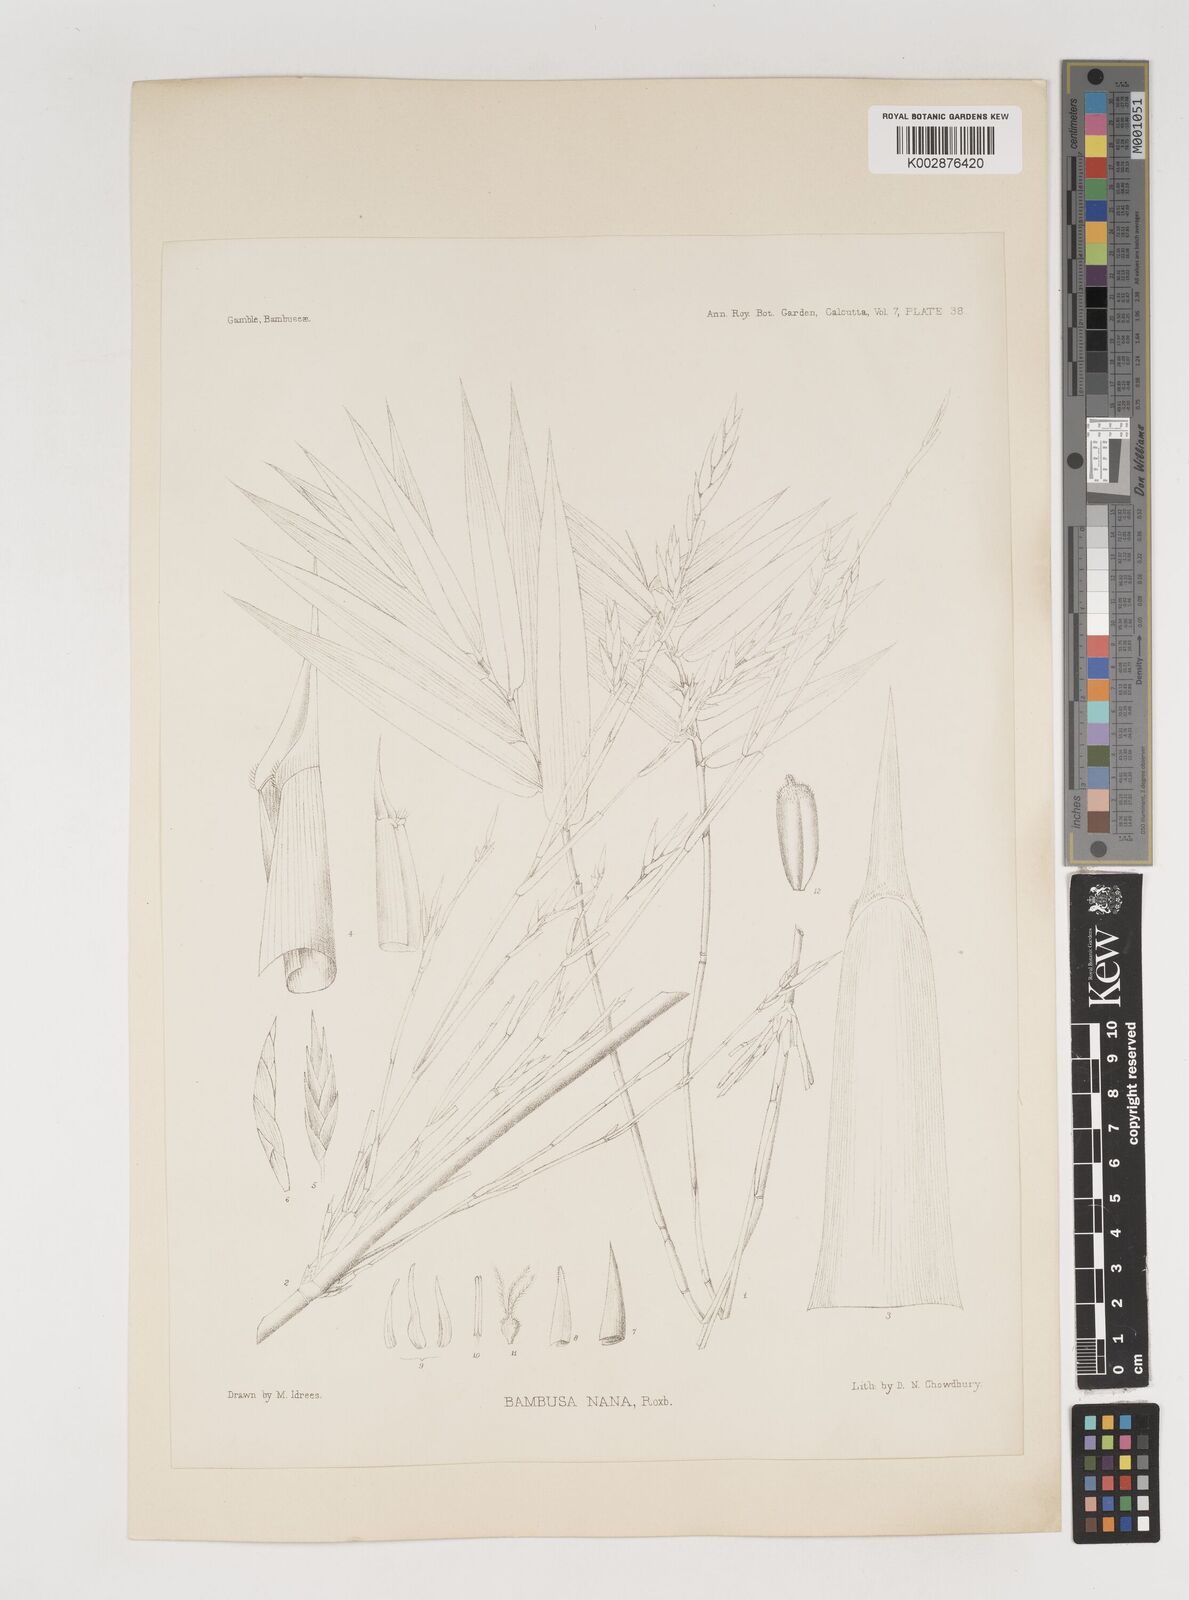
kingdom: Plantae
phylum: Tracheophyta
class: Liliopsida
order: Poales
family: Poaceae
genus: Bambusa
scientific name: Bambusa multiplex
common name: Hedge bamboo
